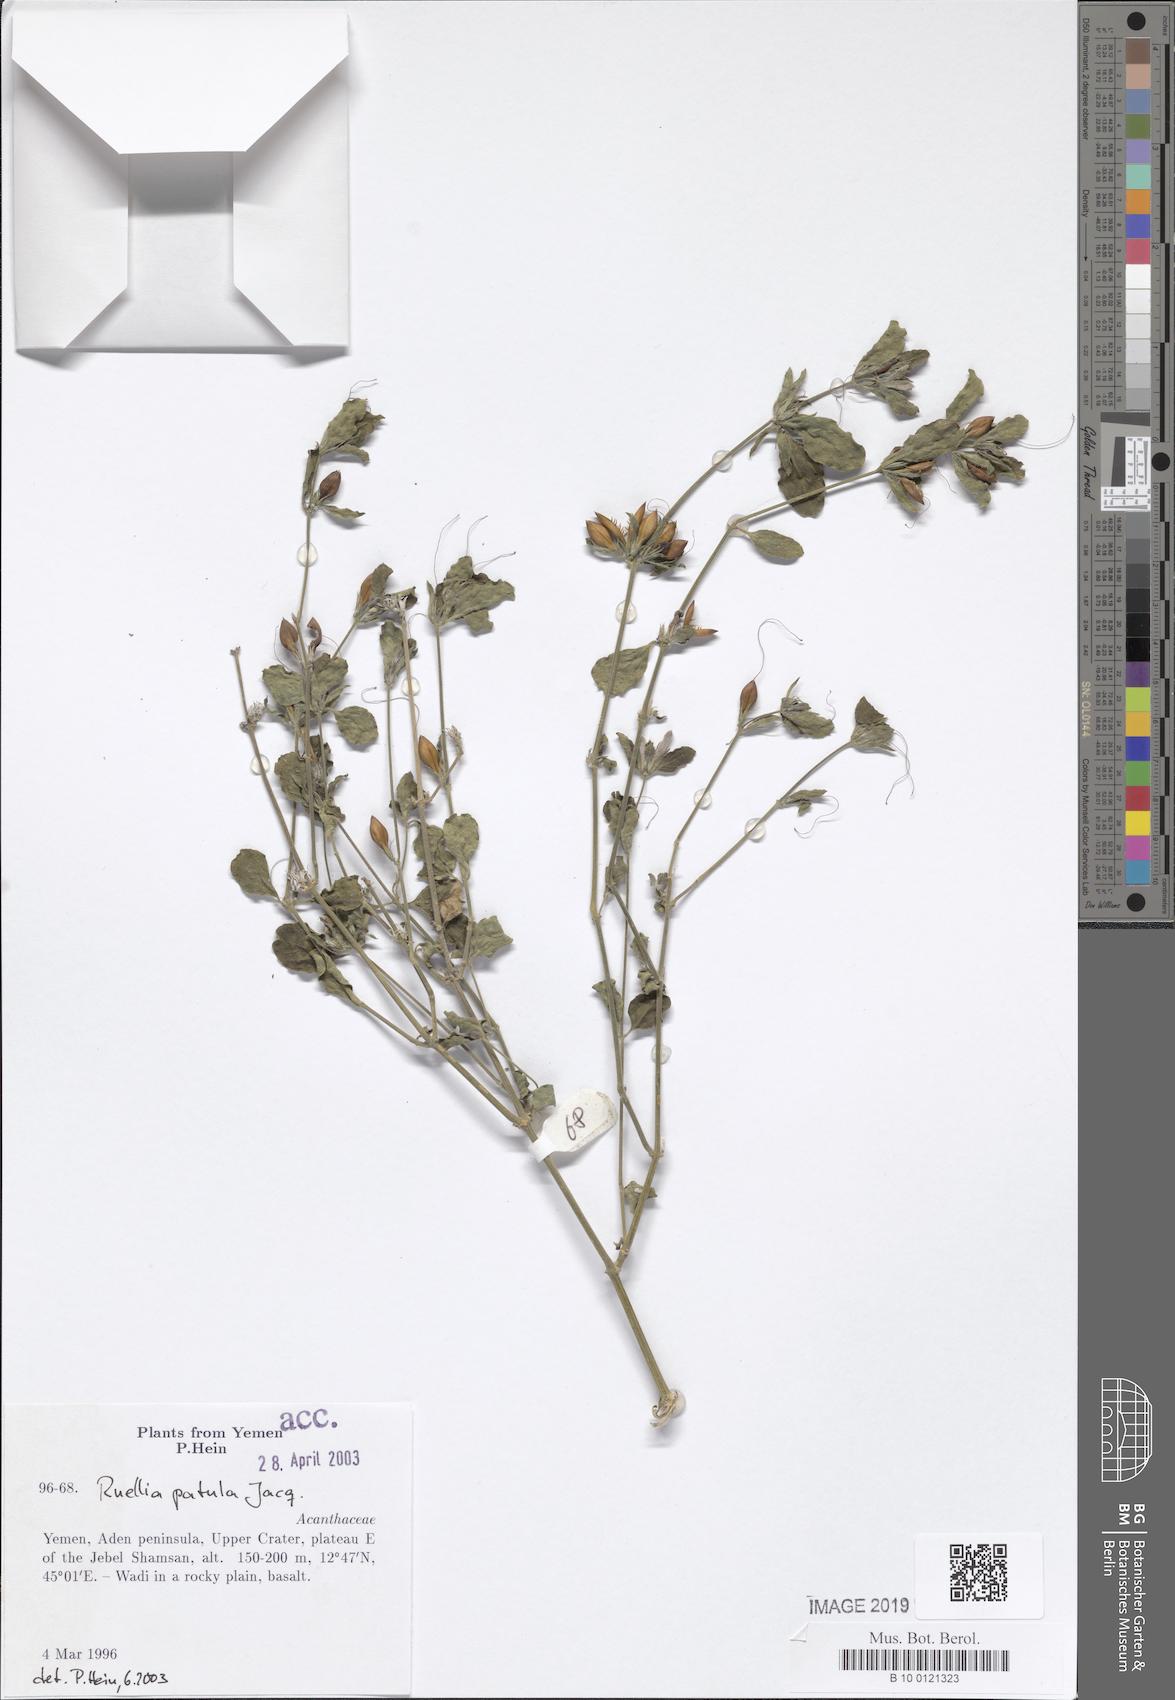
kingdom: Plantae
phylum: Tracheophyta
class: Magnoliopsida
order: Lamiales
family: Acanthaceae
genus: Ruellia
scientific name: Ruellia patula
